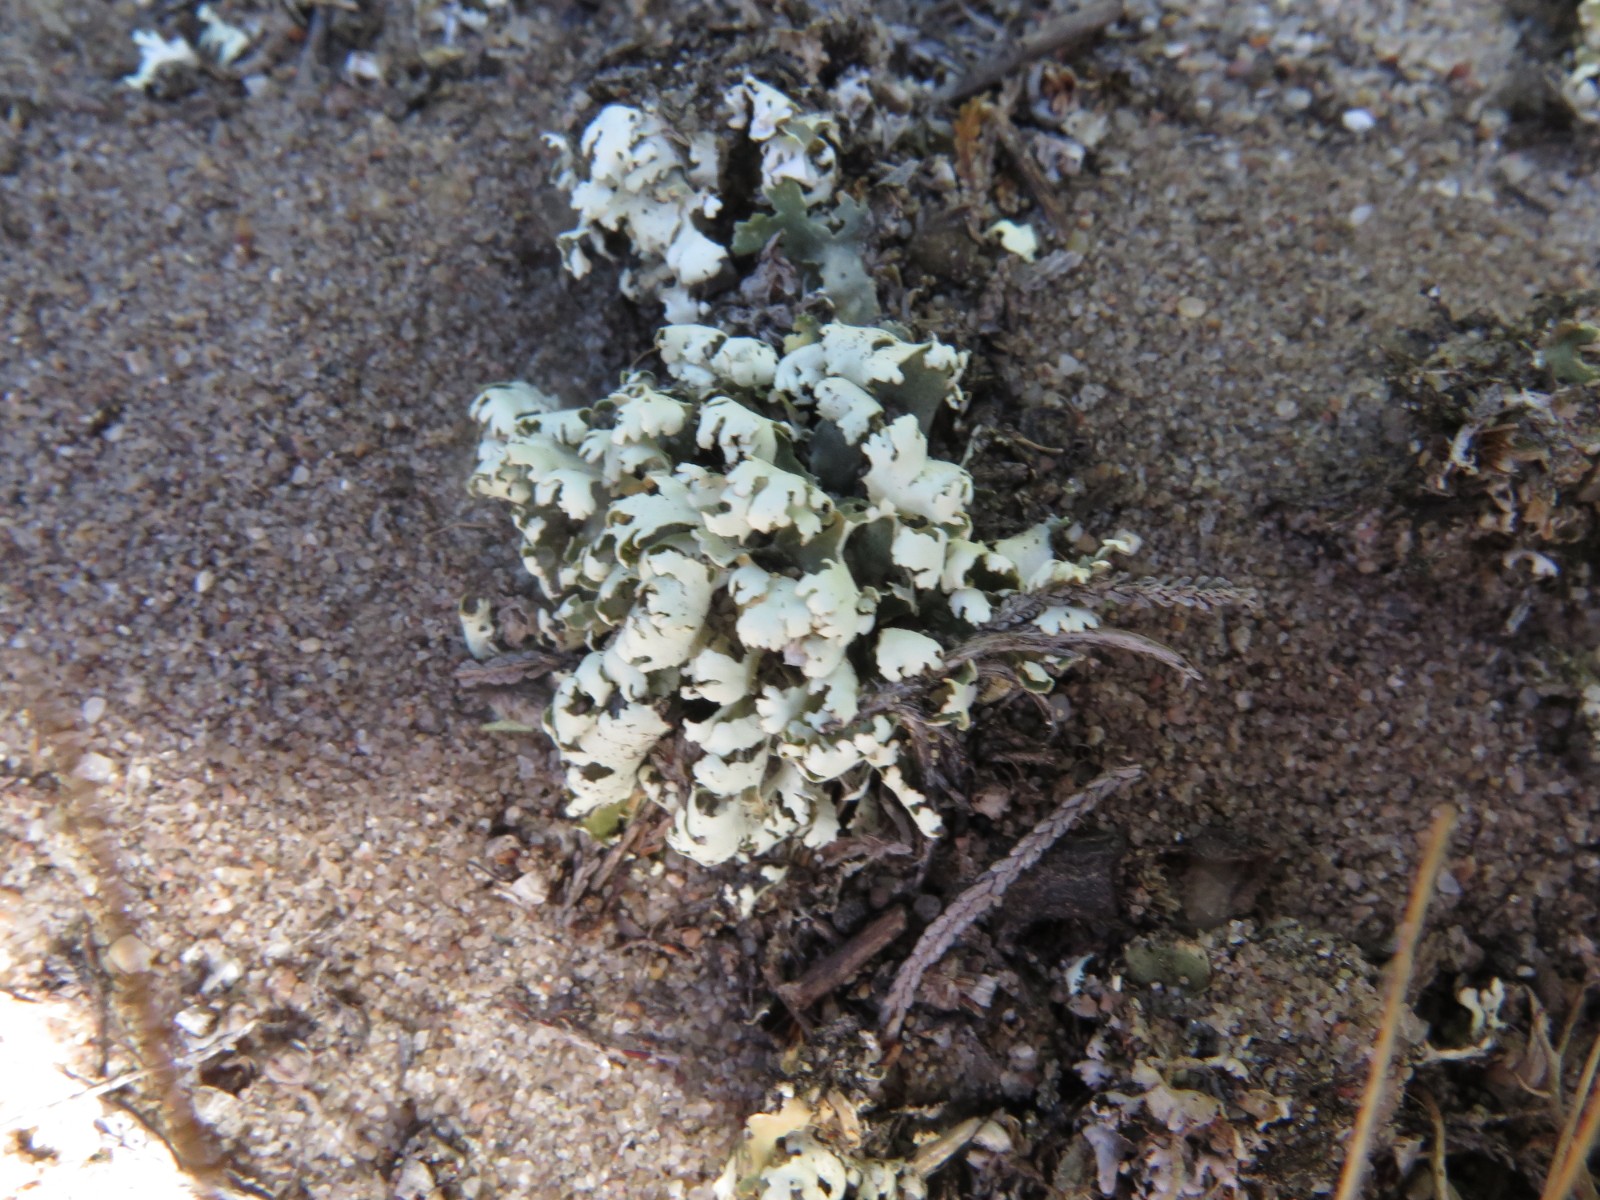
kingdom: Fungi
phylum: Ascomycota
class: Lecanoromycetes
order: Lecanorales
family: Cladoniaceae
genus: Cladonia
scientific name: Cladonia foliacea
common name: fliget bægerlav
